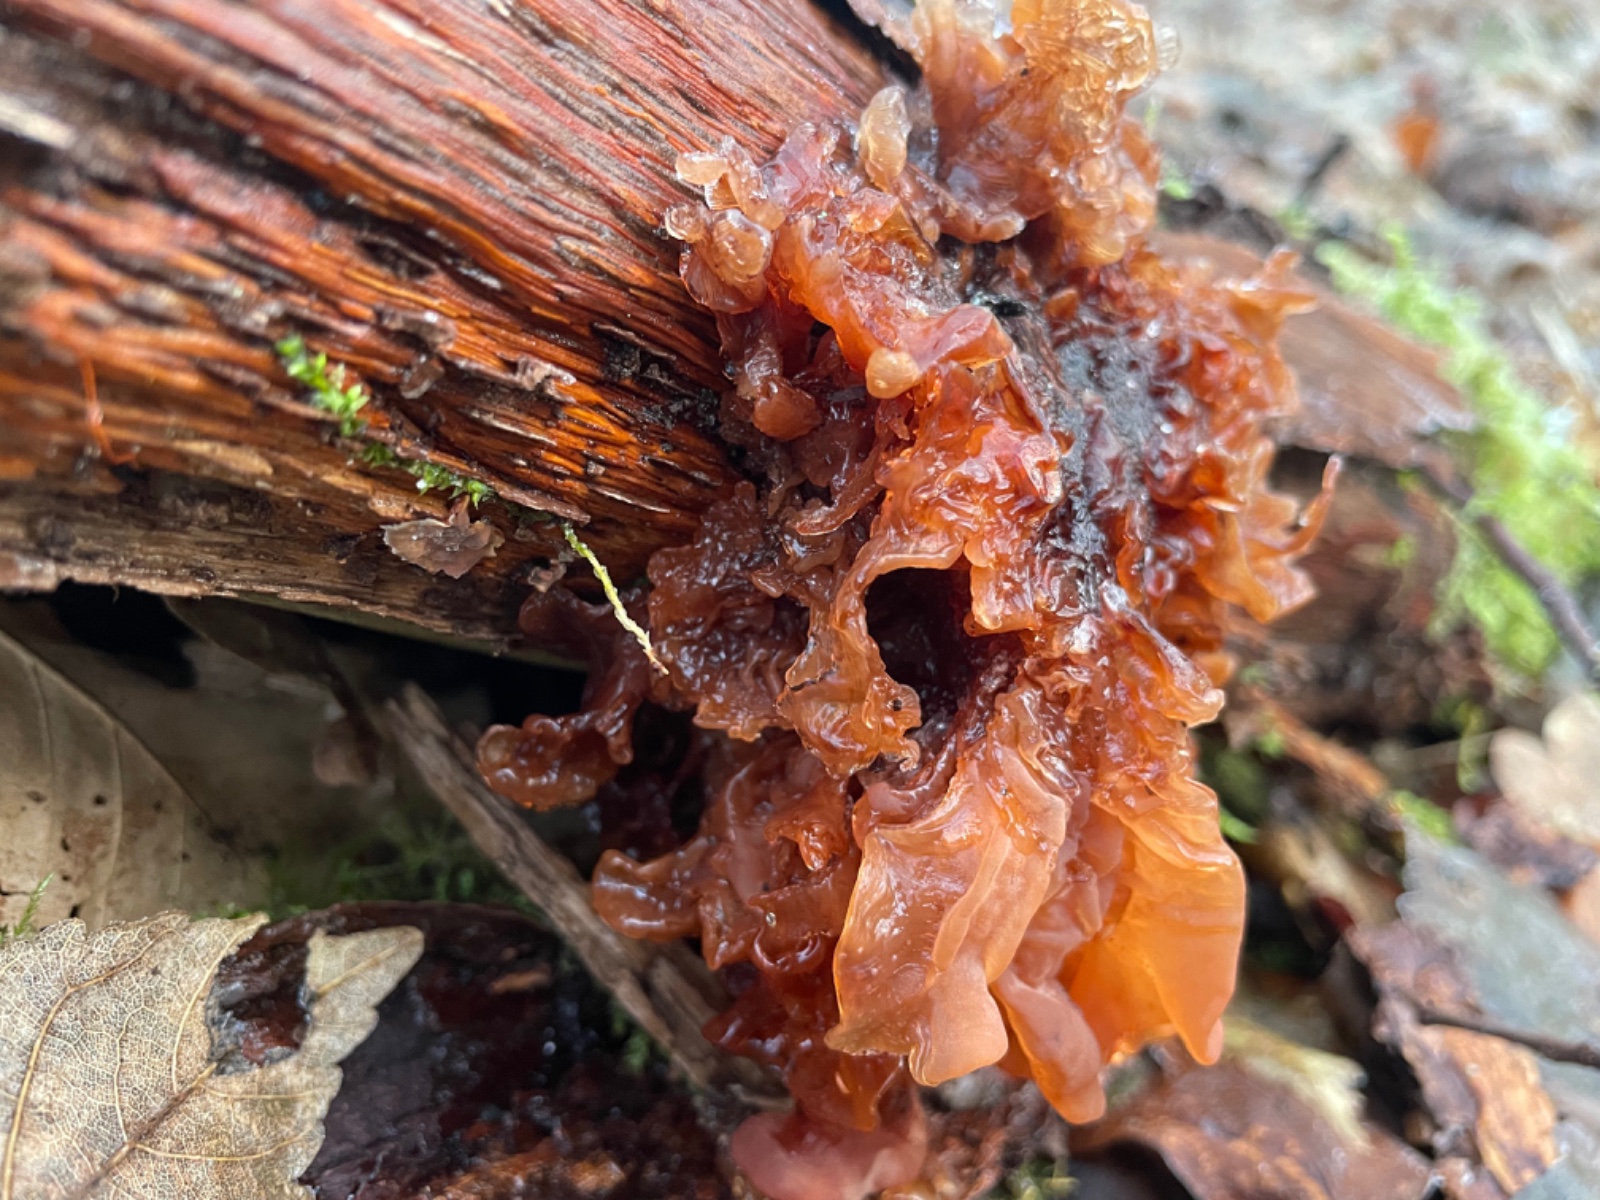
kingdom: Fungi
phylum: Basidiomycota
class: Tremellomycetes
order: Tremellales
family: Tremellaceae
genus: Phaeotremella
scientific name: Phaeotremella
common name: bævresvamp
